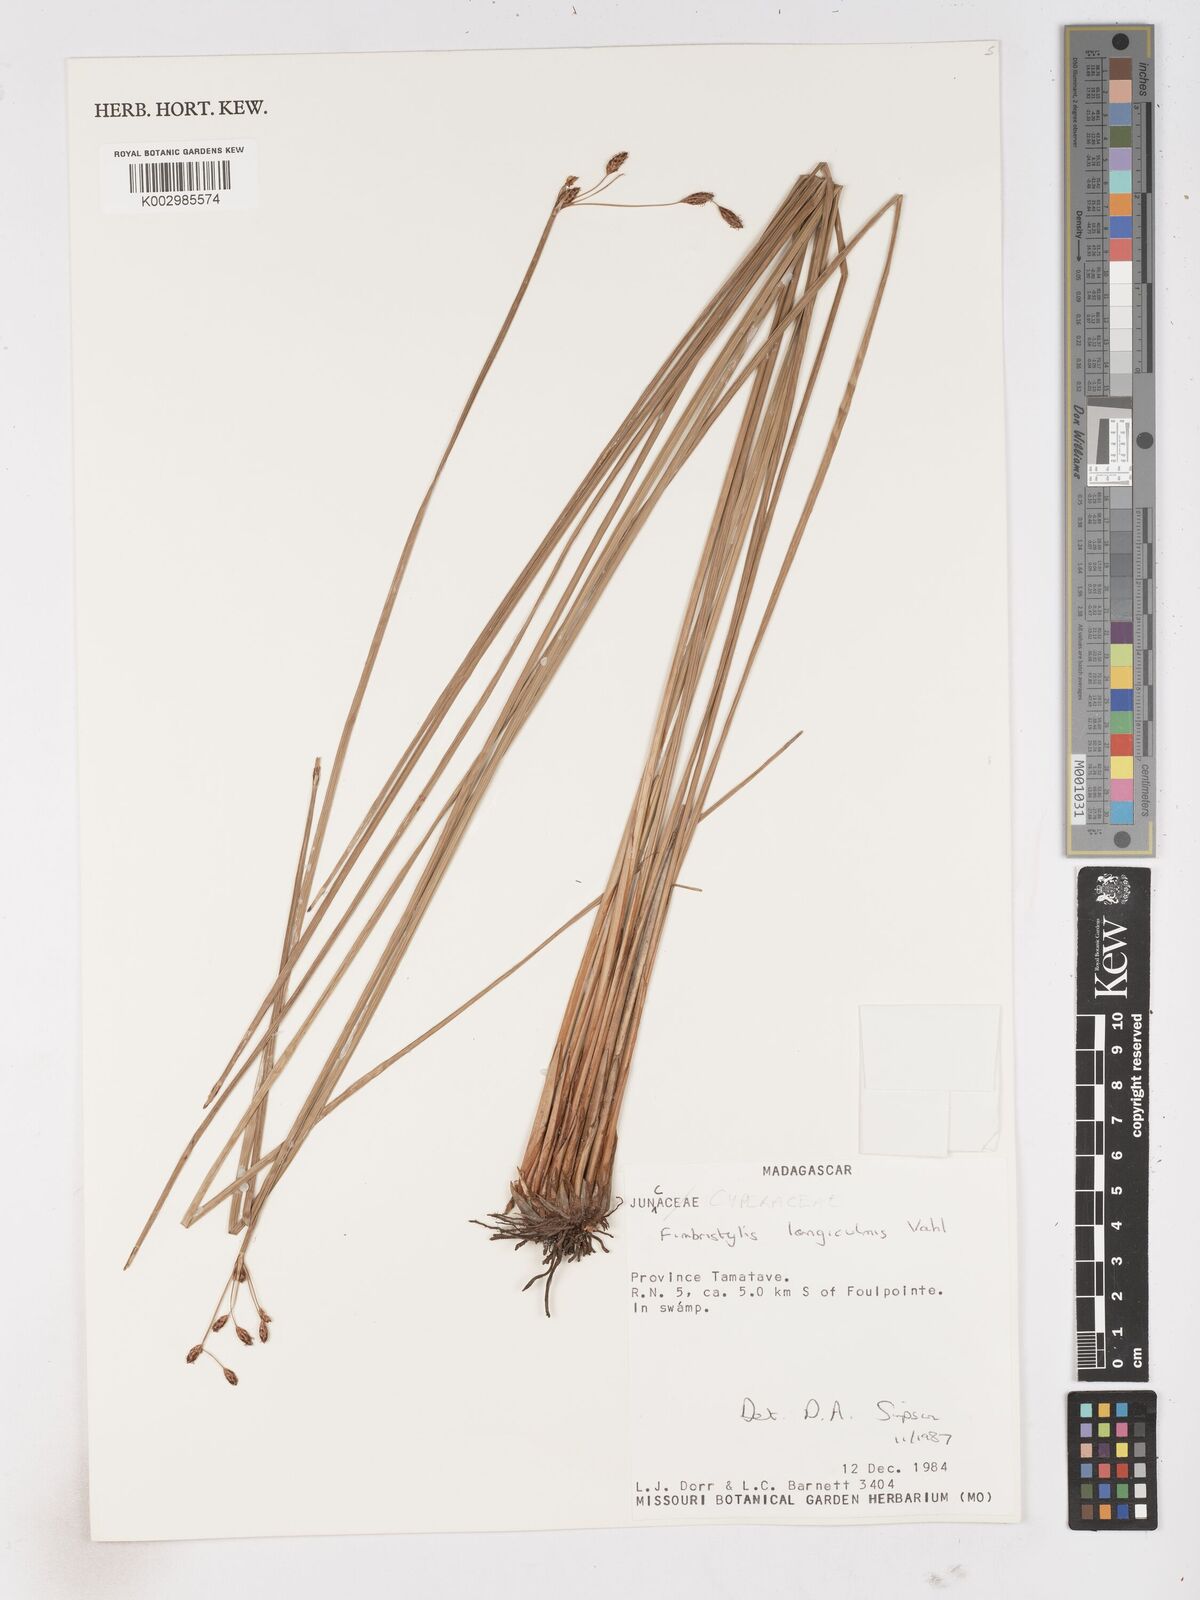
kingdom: Plantae
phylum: Tracheophyta
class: Liliopsida
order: Poales
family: Cyperaceae
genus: Fimbristylis
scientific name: Fimbristylis bivalvis
